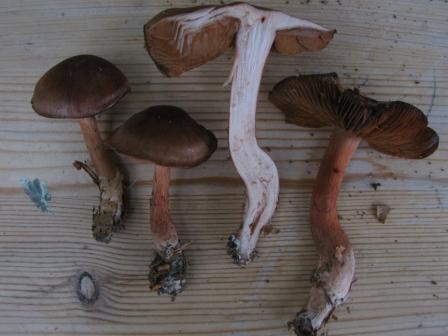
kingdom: Fungi
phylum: Basidiomycota
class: Agaricomycetes
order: Agaricales
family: Cortinariaceae
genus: Cortinarius
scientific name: Cortinarius danicus
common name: dansk slørhat
